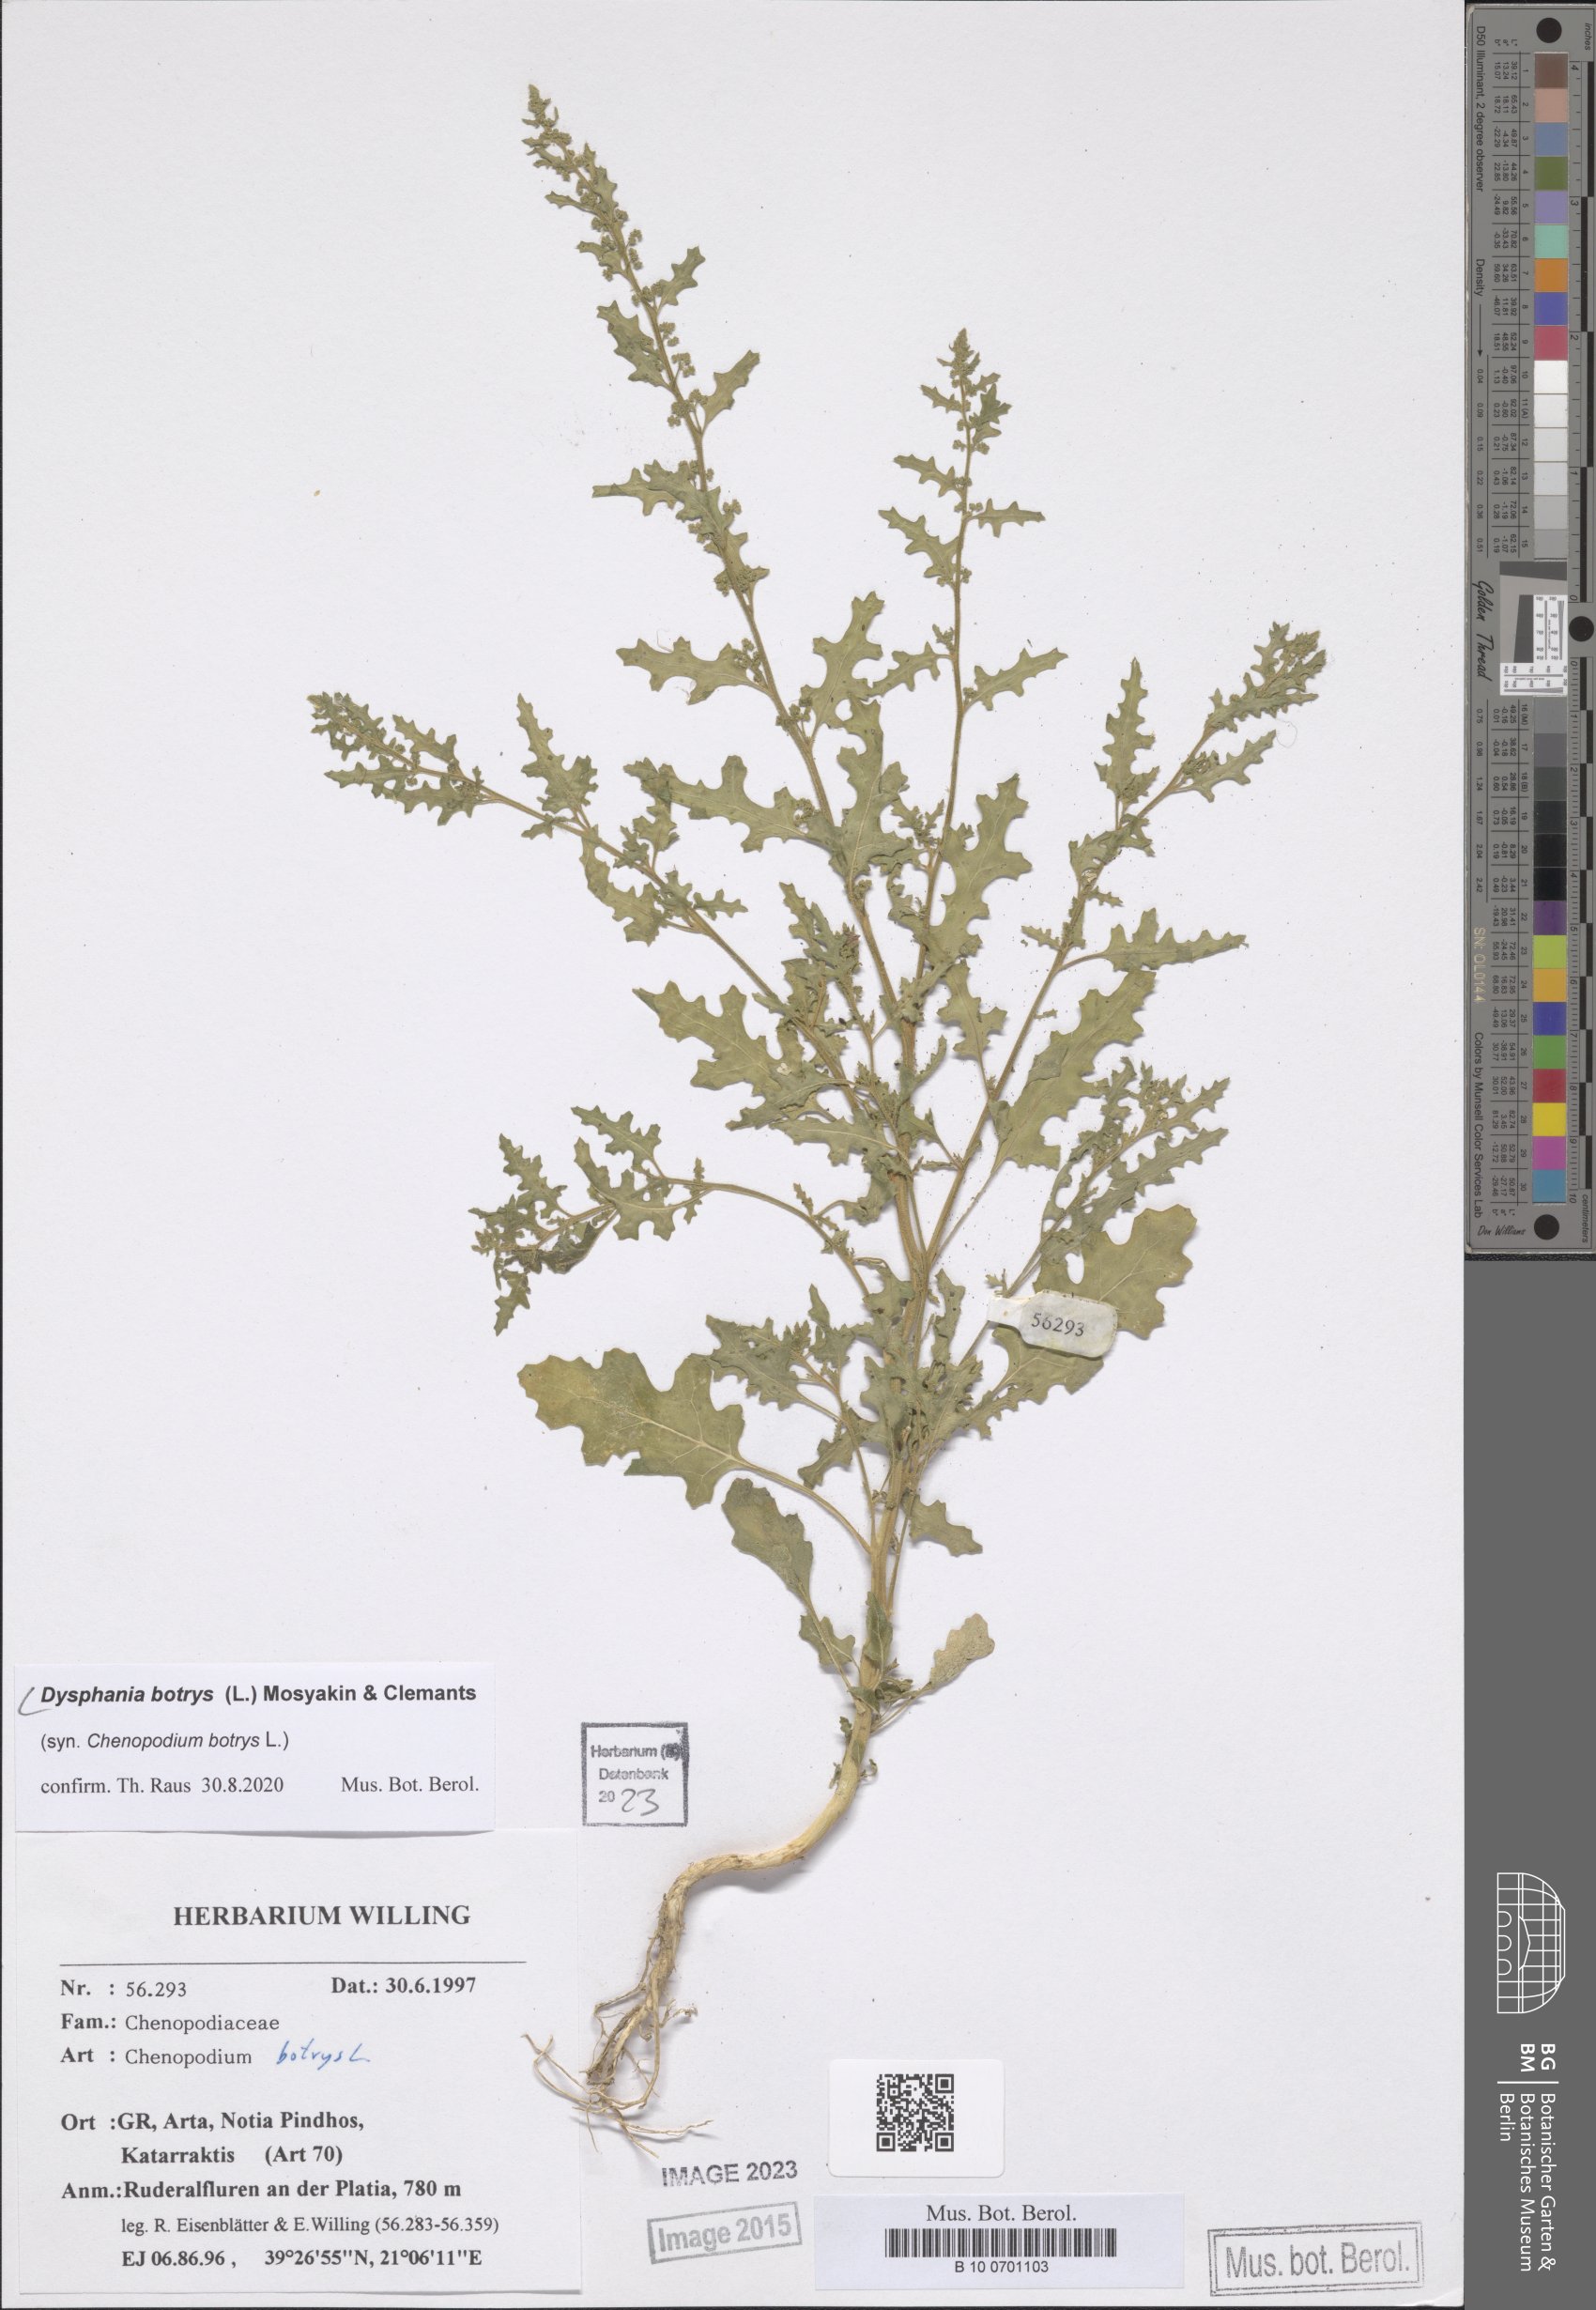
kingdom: Plantae
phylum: Tracheophyta
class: Magnoliopsida
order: Caryophyllales
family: Amaranthaceae
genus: Dysphania
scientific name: Dysphania botrys
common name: Feather-geranium
